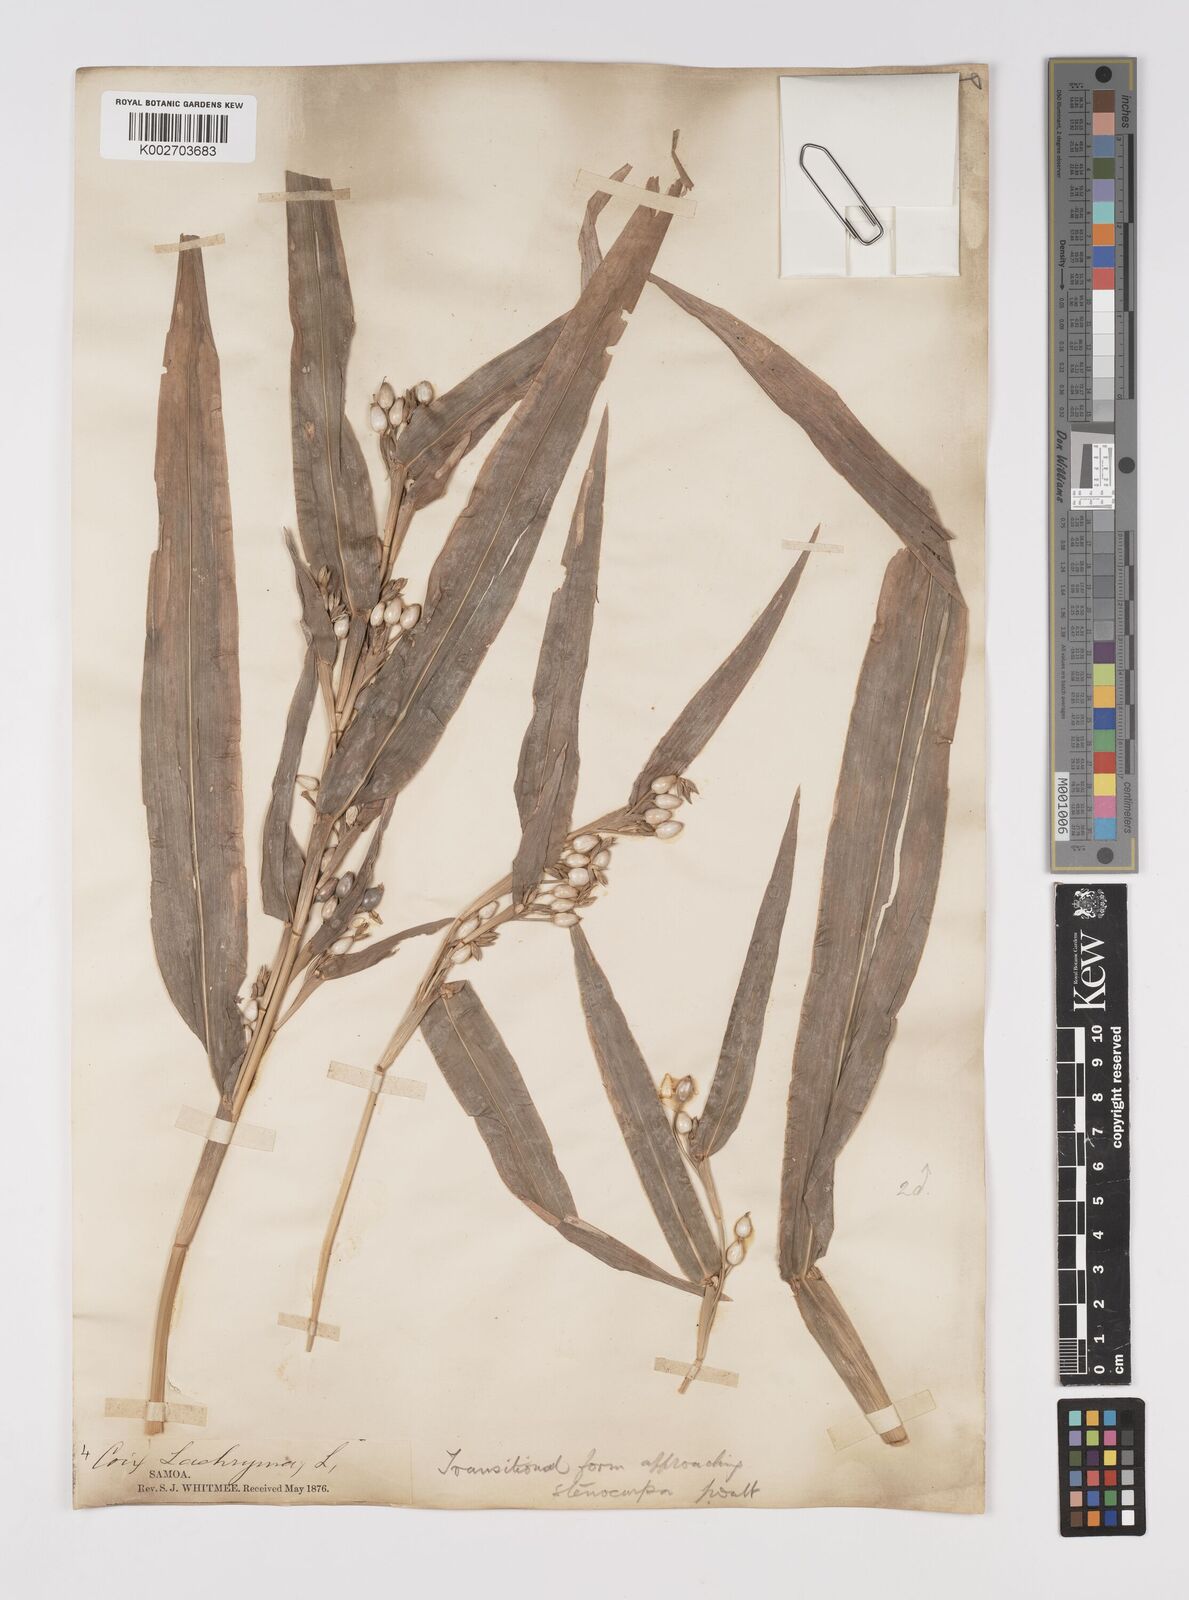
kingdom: Plantae
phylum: Tracheophyta
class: Liliopsida
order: Poales
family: Poaceae
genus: Coix
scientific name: Coix lacryma-jobi
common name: Job's tears
